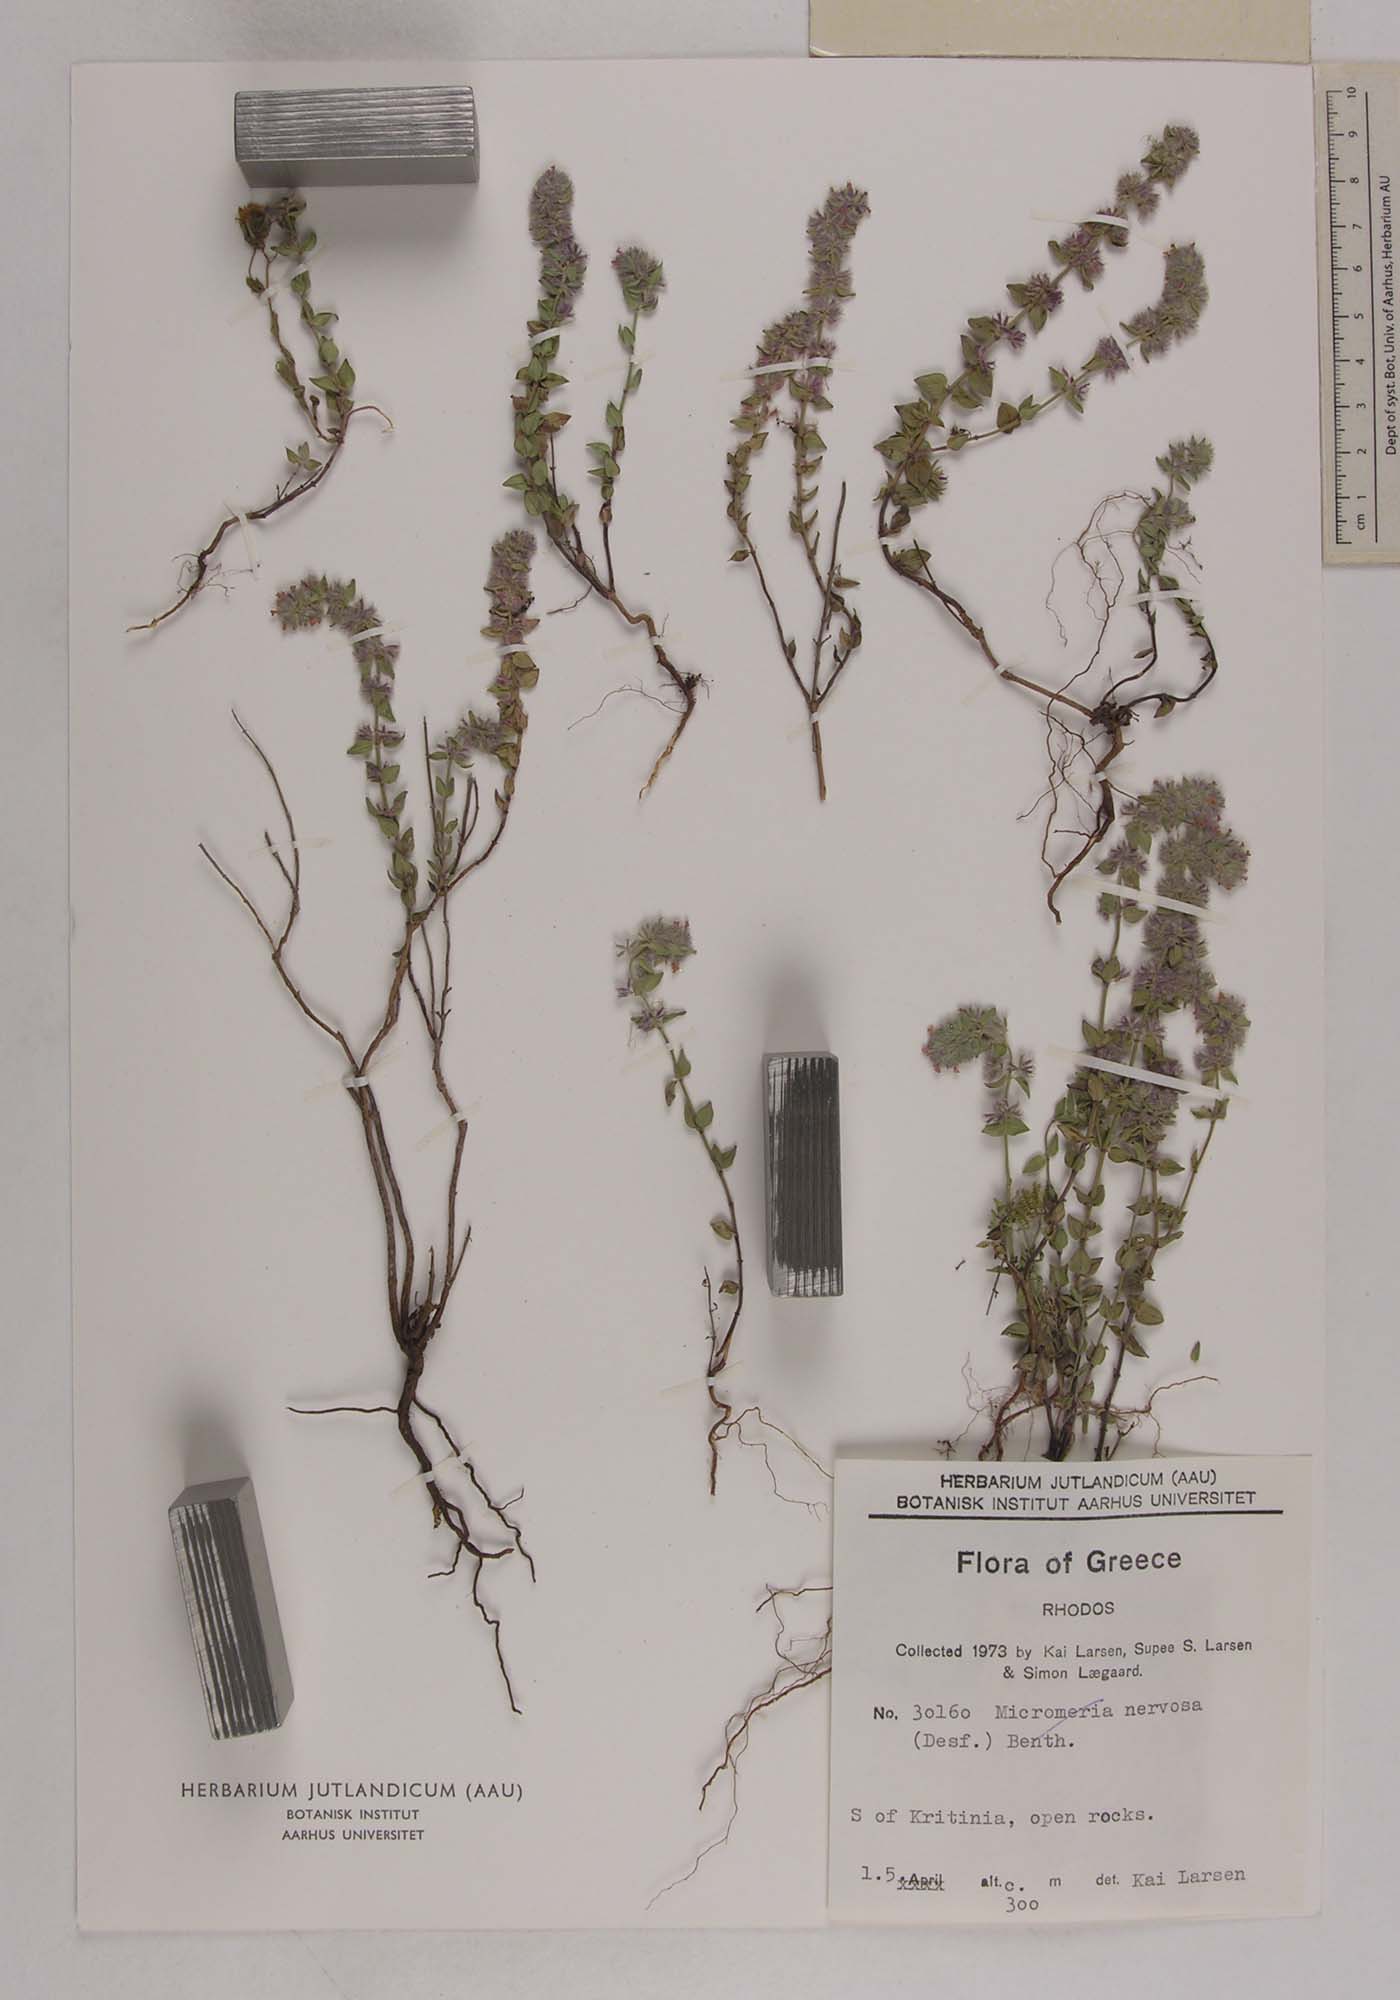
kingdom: Plantae
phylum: Tracheophyta
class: Magnoliopsida
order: Lamiales
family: Lamiaceae
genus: Micromeria
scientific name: Micromeria nervosa
